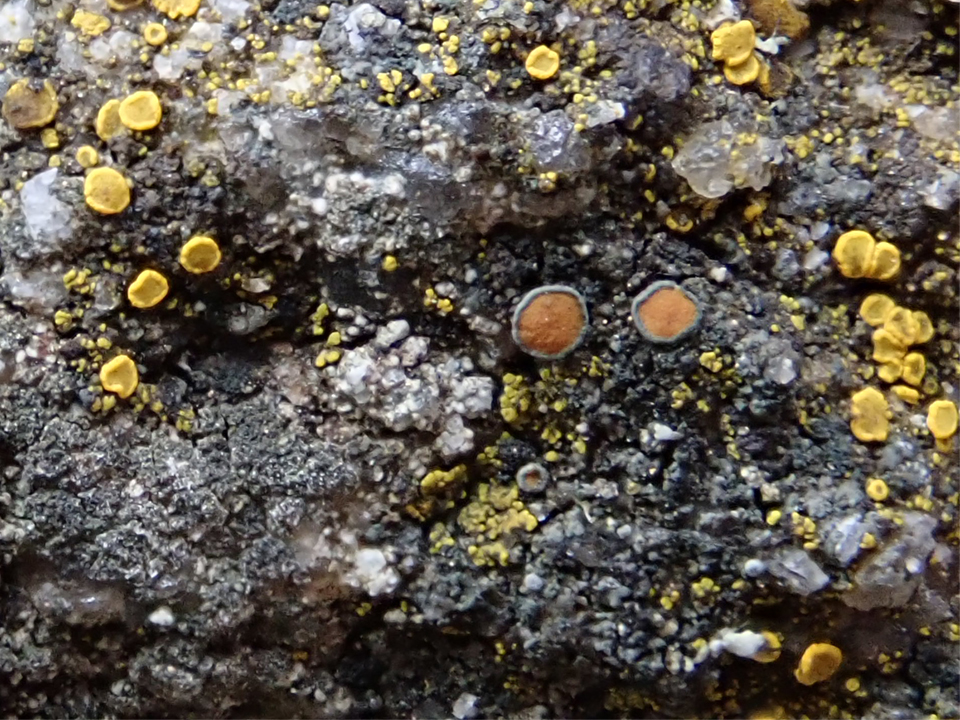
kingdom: Fungi
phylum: Ascomycota
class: Lecanoromycetes
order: Teloschistales
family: Teloschistaceae
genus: Caloplaca
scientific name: Caloplaca chlorina
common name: mørkskællet orangelav
